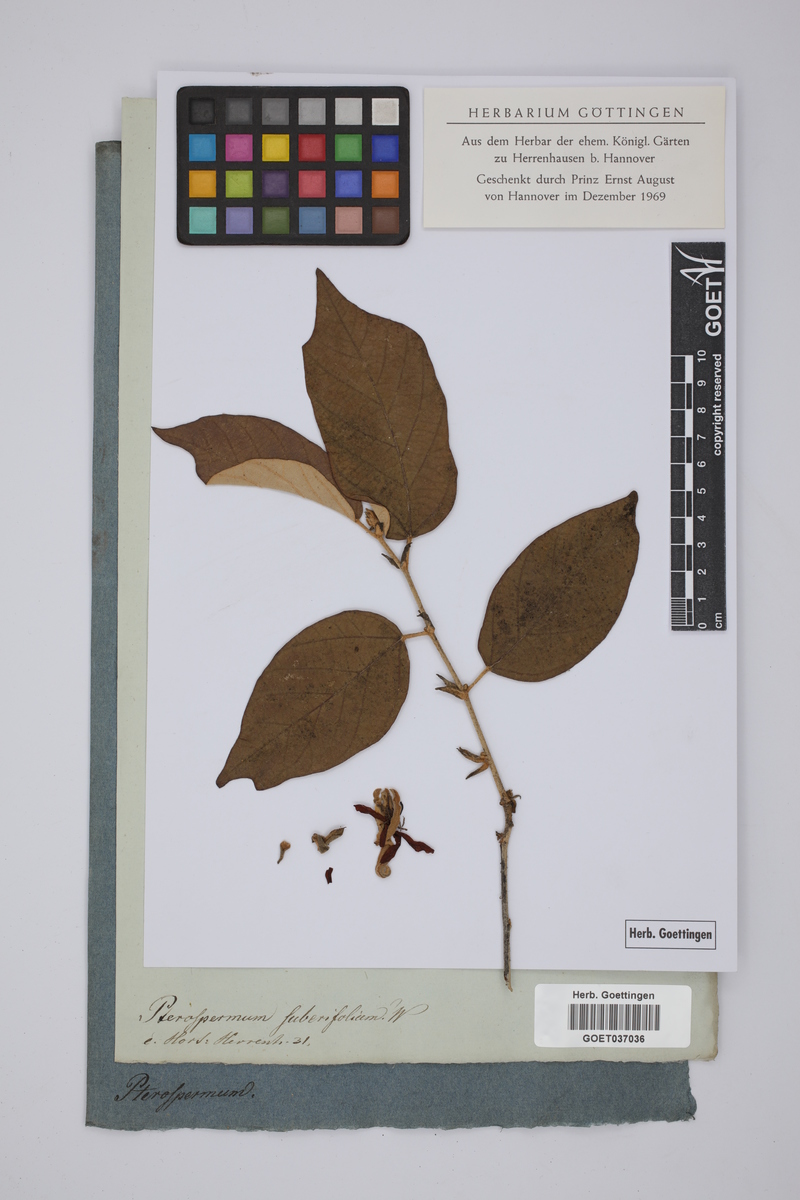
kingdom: Plantae
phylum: Tracheophyta
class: Magnoliopsida
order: Malvales
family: Malvaceae
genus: Pterospermum
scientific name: Pterospermum suberifolium
